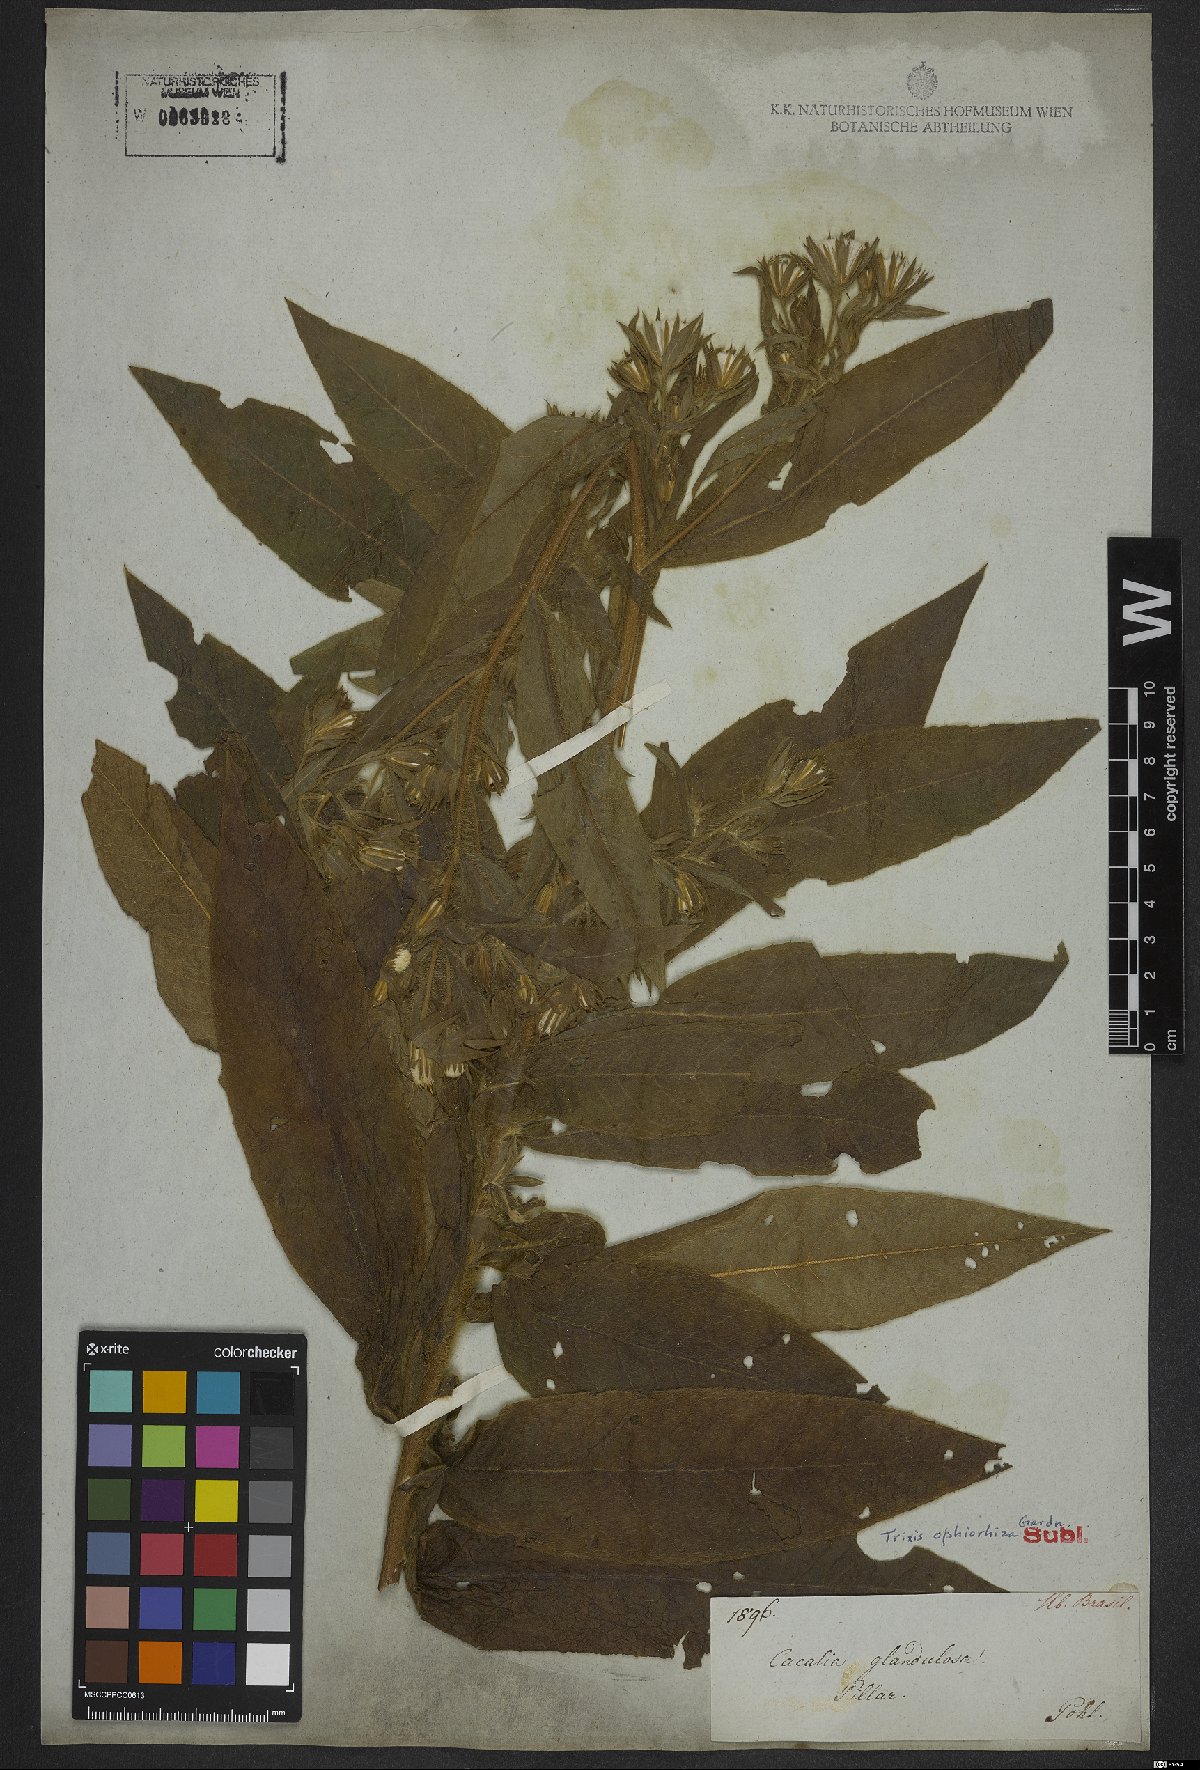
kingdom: Plantae
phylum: Tracheophyta
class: Magnoliopsida
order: Asterales
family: Asteraceae
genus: Trixis
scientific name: Trixis ophiorhiza
